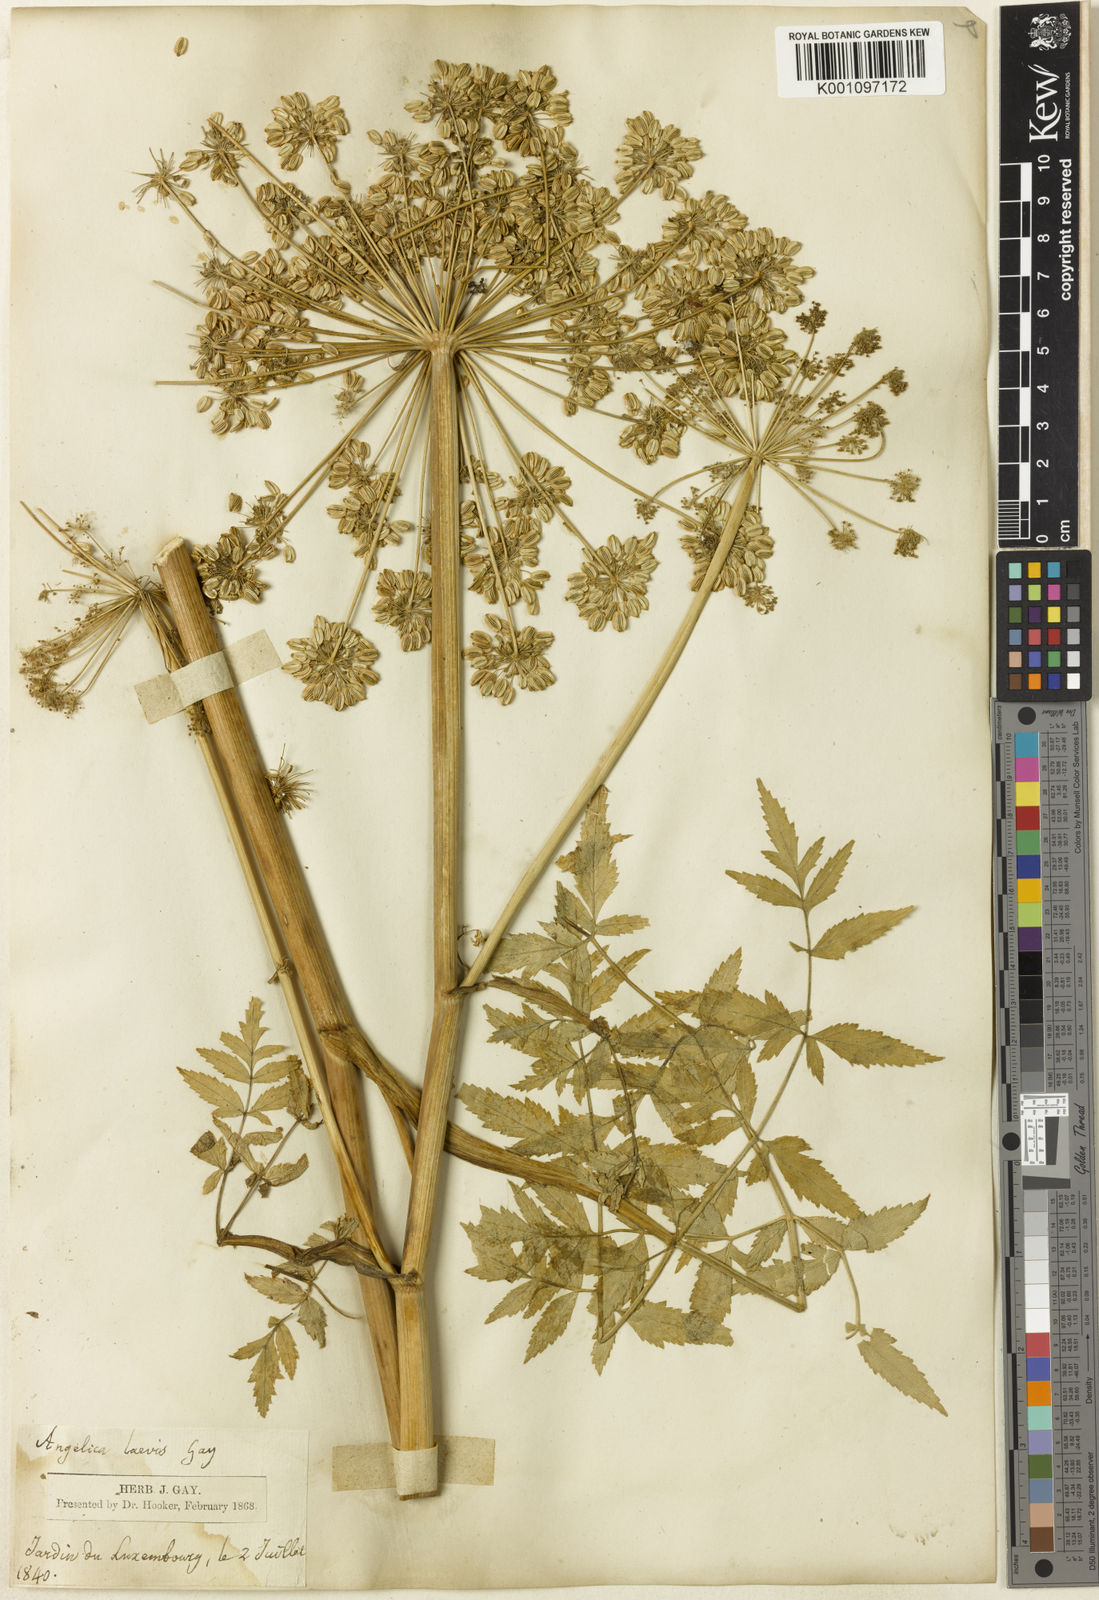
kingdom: Plantae
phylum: Tracheophyta
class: Magnoliopsida
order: Apiales
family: Apiaceae
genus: Angelica
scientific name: Angelica
